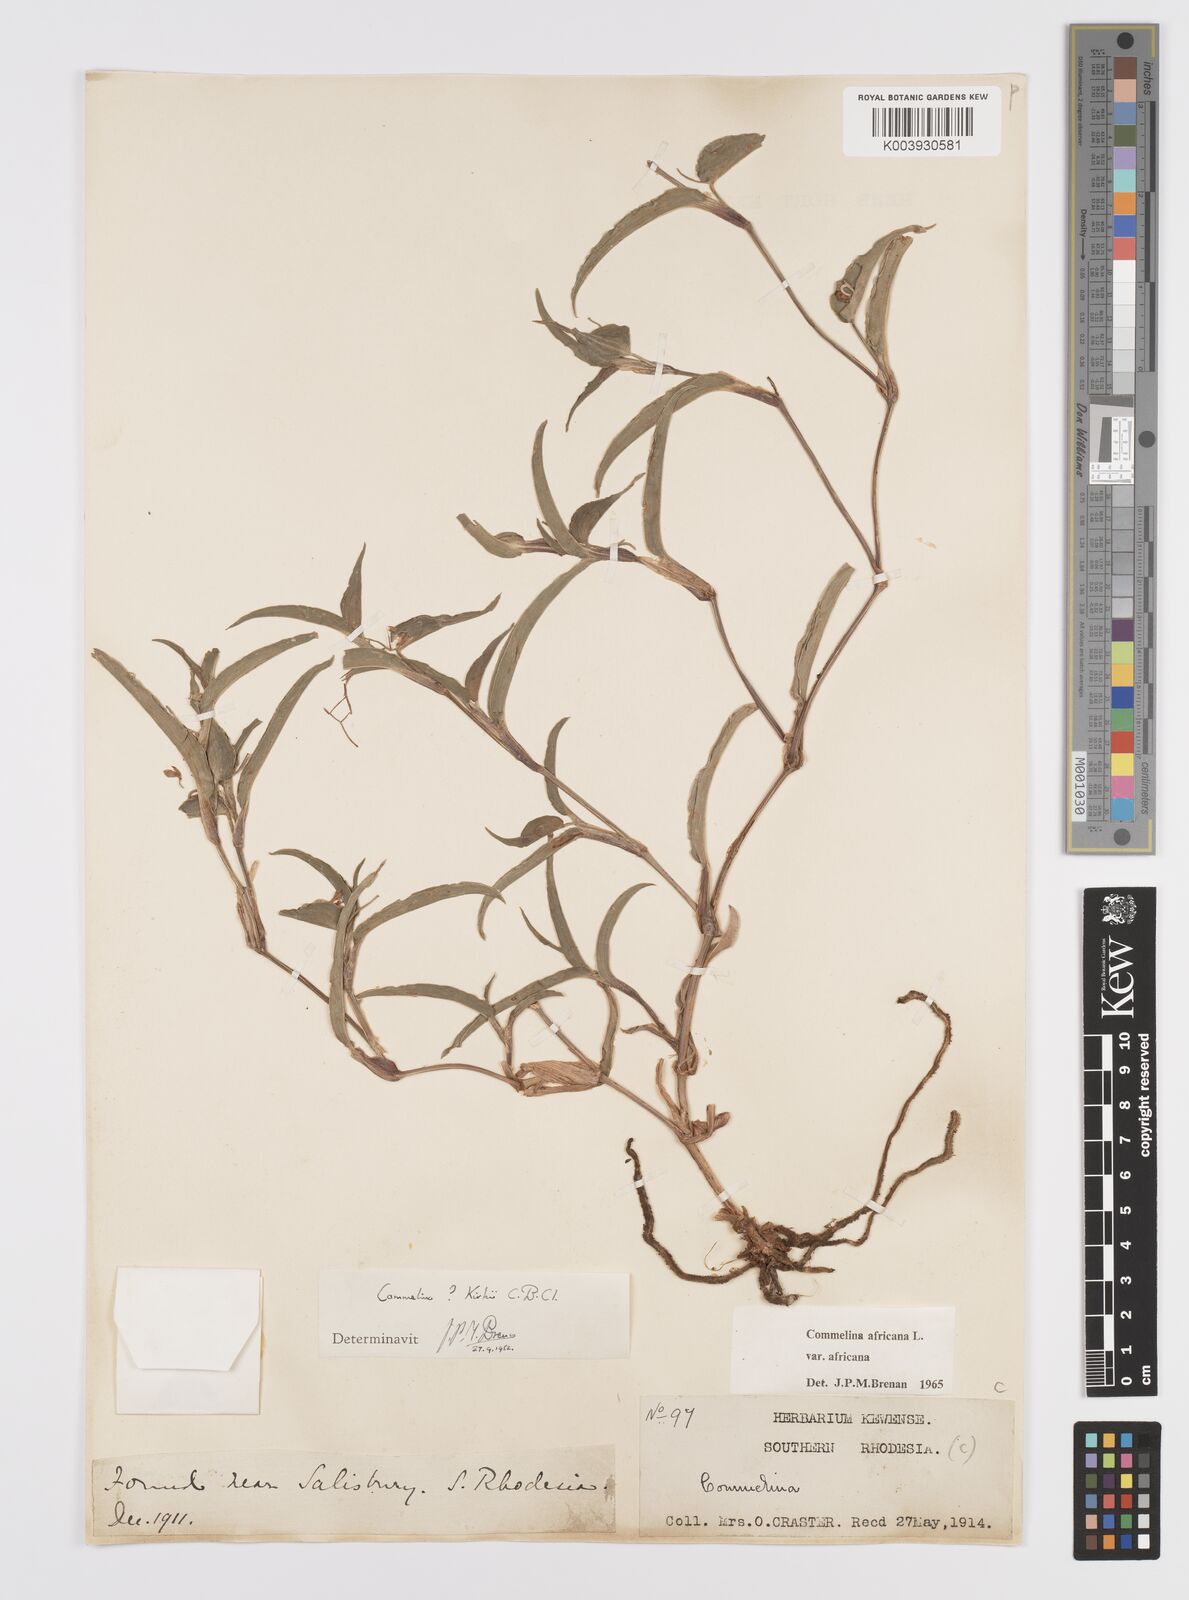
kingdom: Plantae
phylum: Tracheophyta
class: Liliopsida
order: Commelinales
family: Commelinaceae
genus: Commelina
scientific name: Commelina africana
